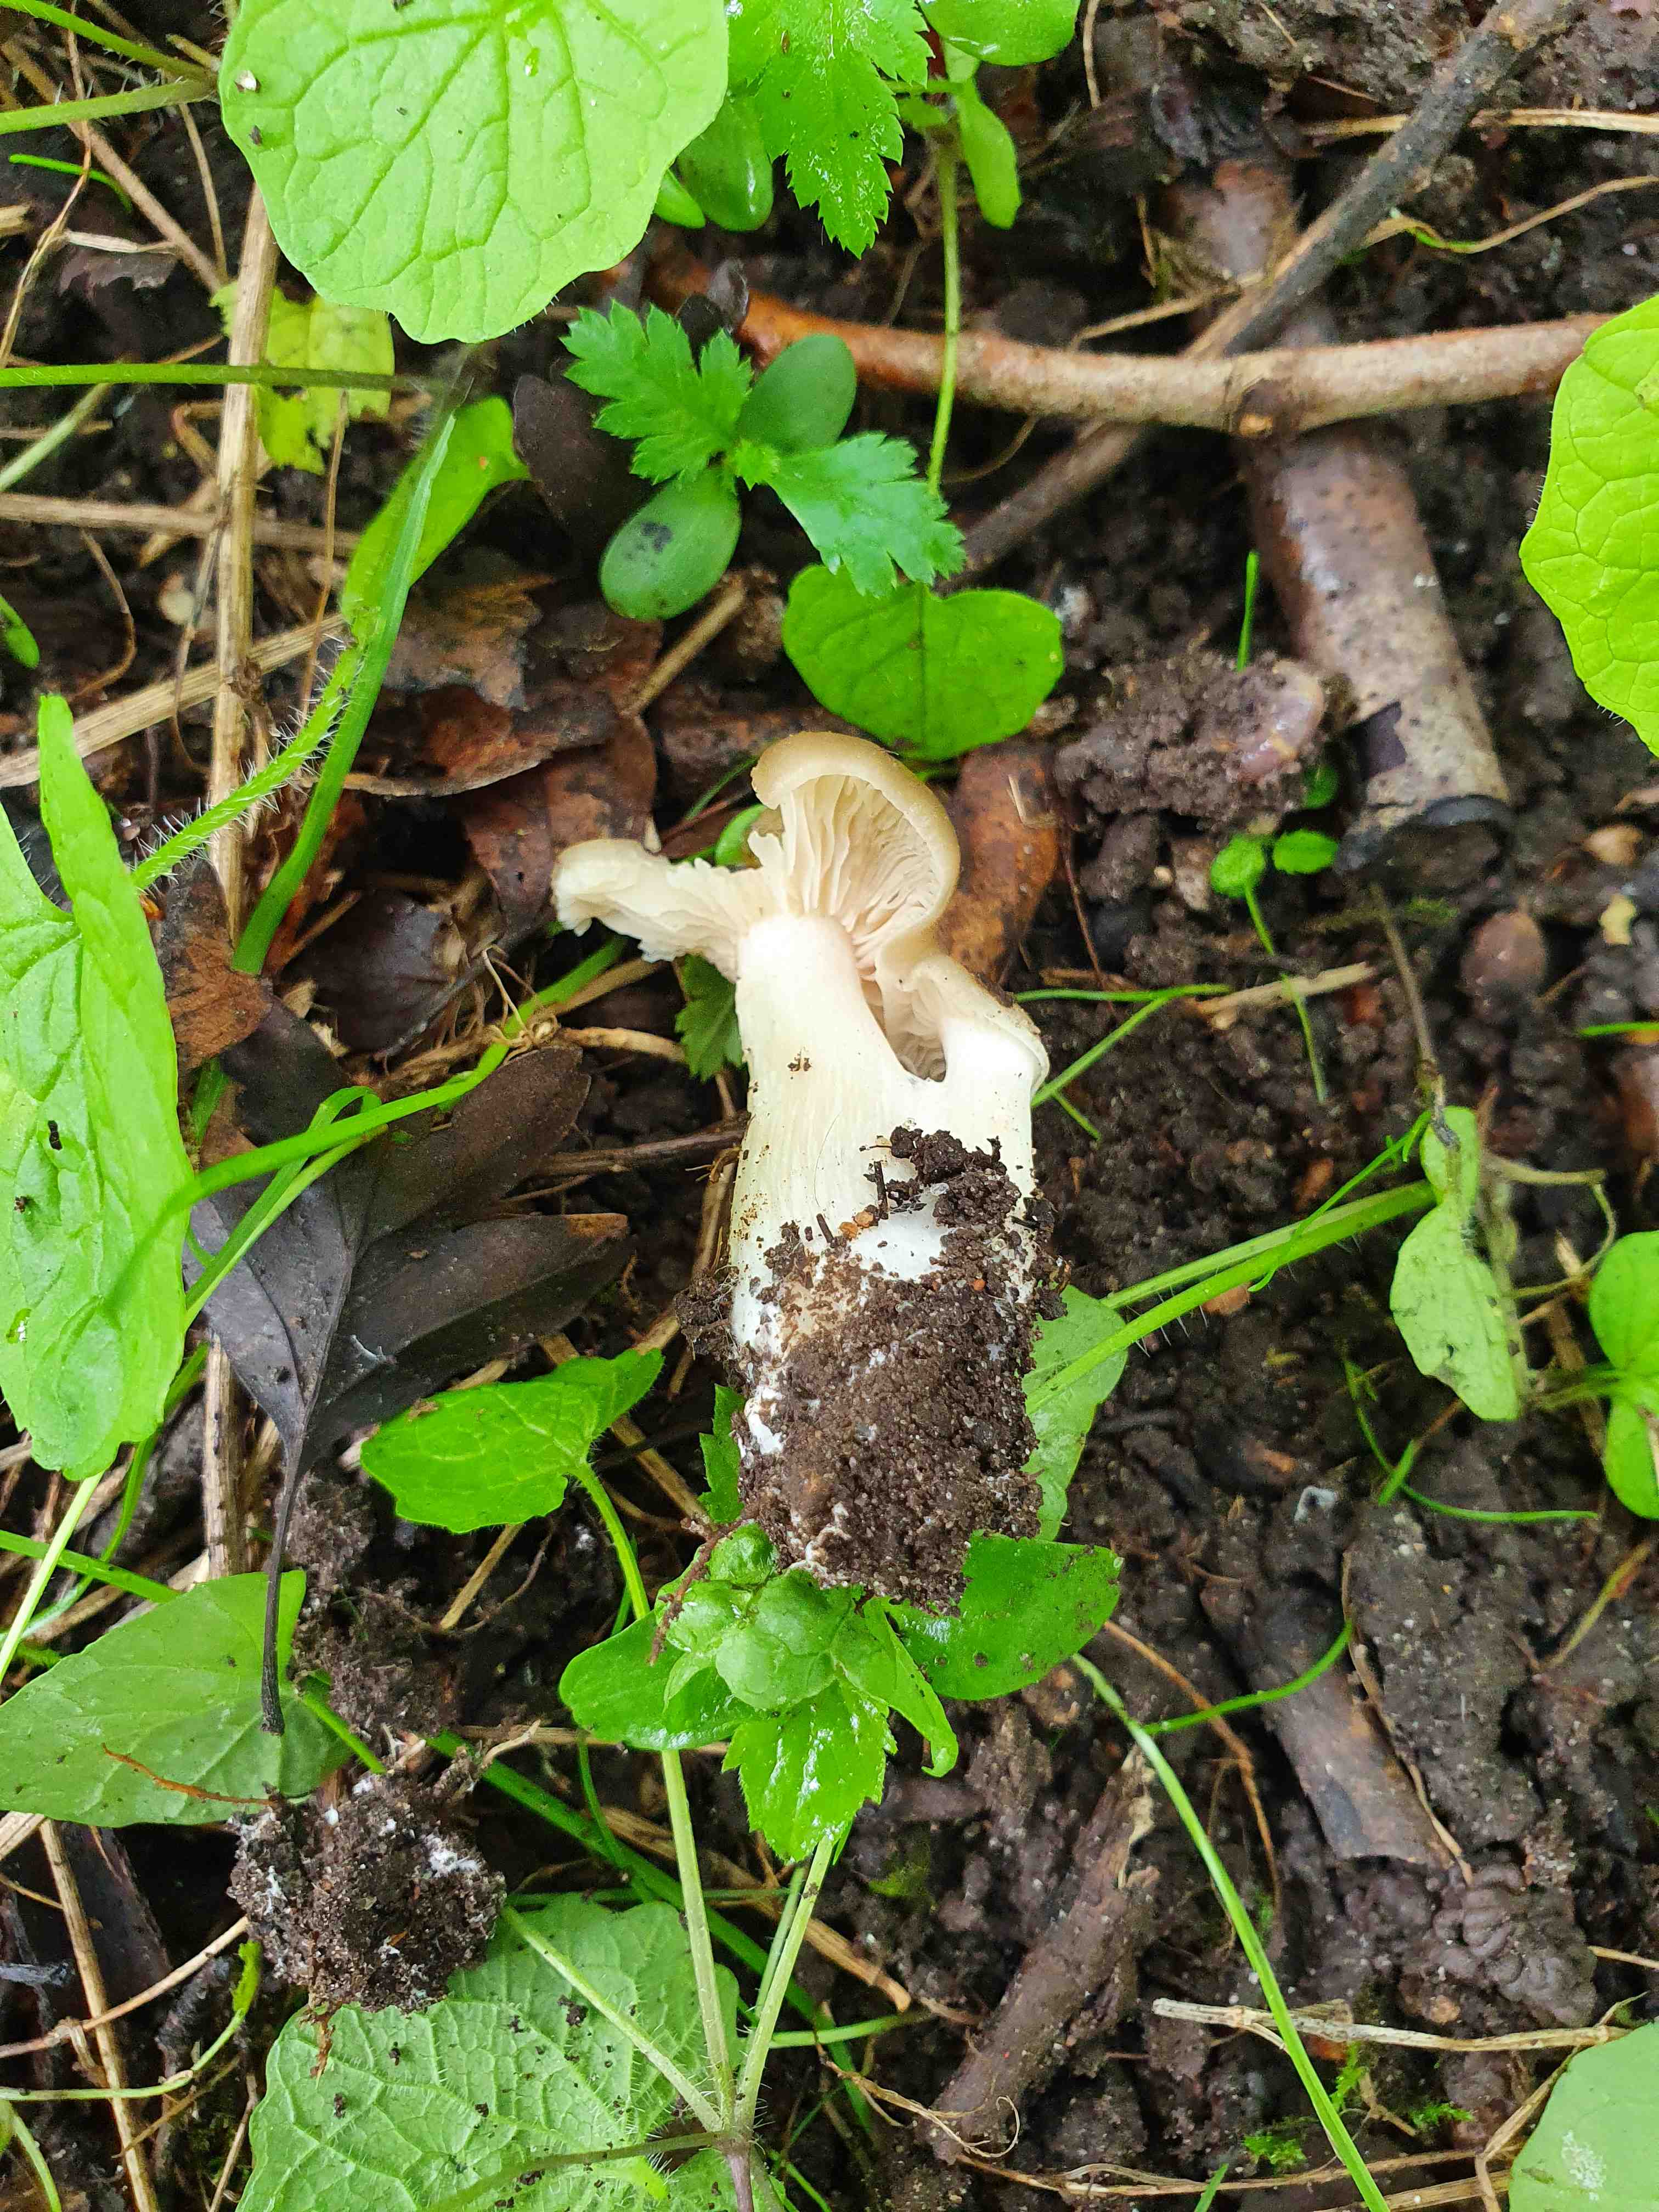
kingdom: Fungi
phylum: Basidiomycota
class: Agaricomycetes
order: Agaricales
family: Entolomataceae
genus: Entoloma
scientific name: Entoloma clypeatum
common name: flammet rødblad
